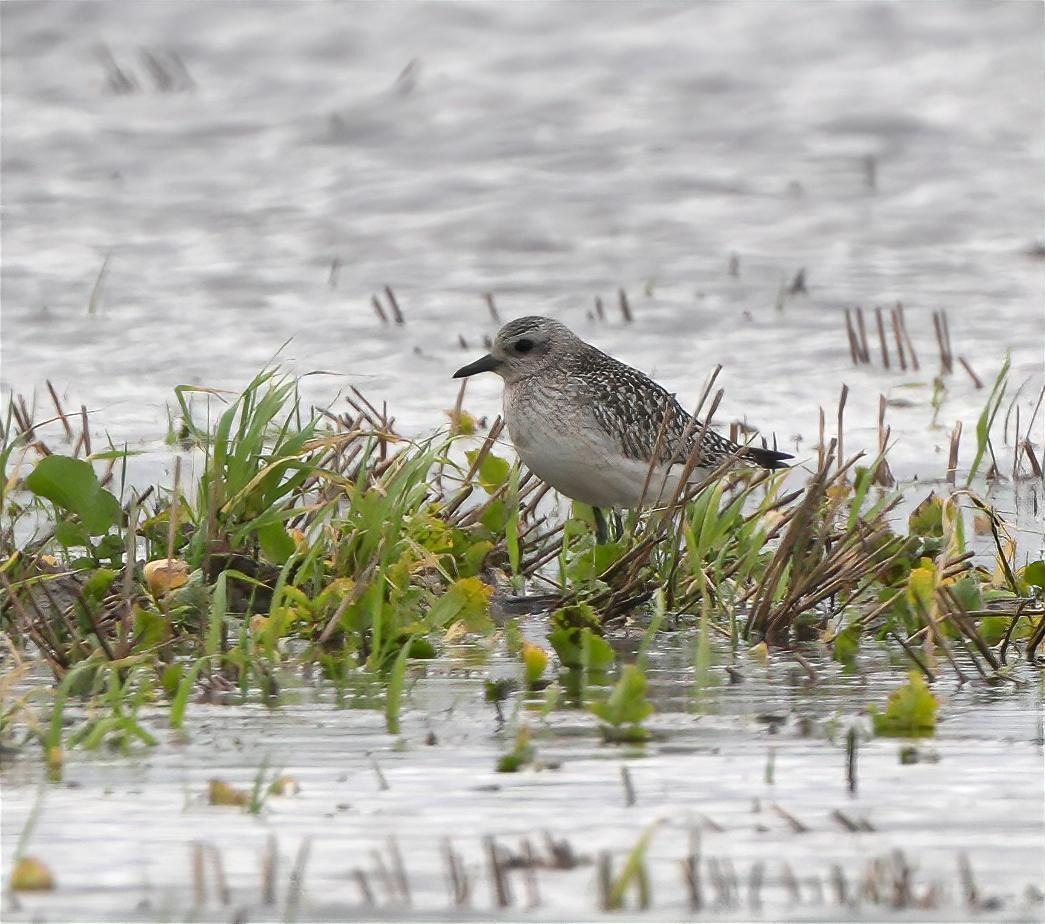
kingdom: Animalia
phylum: Chordata
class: Aves
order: Charadriiformes
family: Charadriidae
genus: Pluvialis
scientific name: Pluvialis squatarola
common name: Strandhjejle
